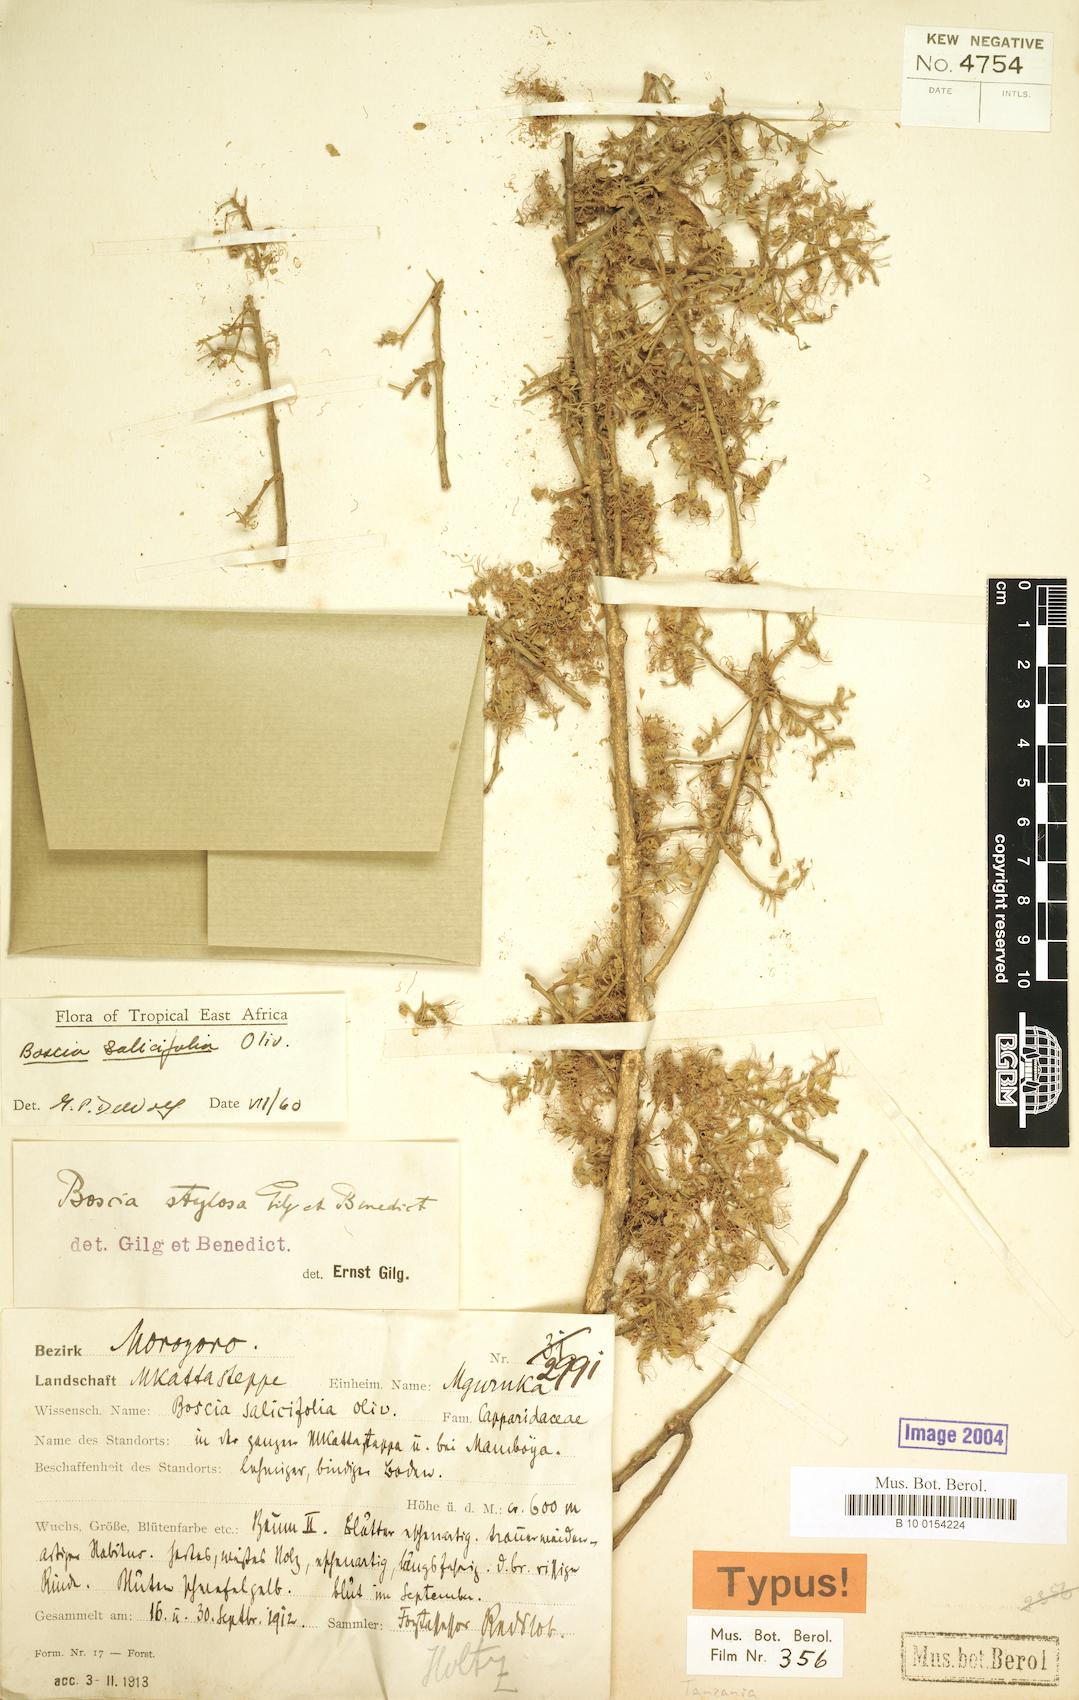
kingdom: Plantae
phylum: Tracheophyta
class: Magnoliopsida
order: Brassicales
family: Capparaceae
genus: Boscia
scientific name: Boscia salicifolia
